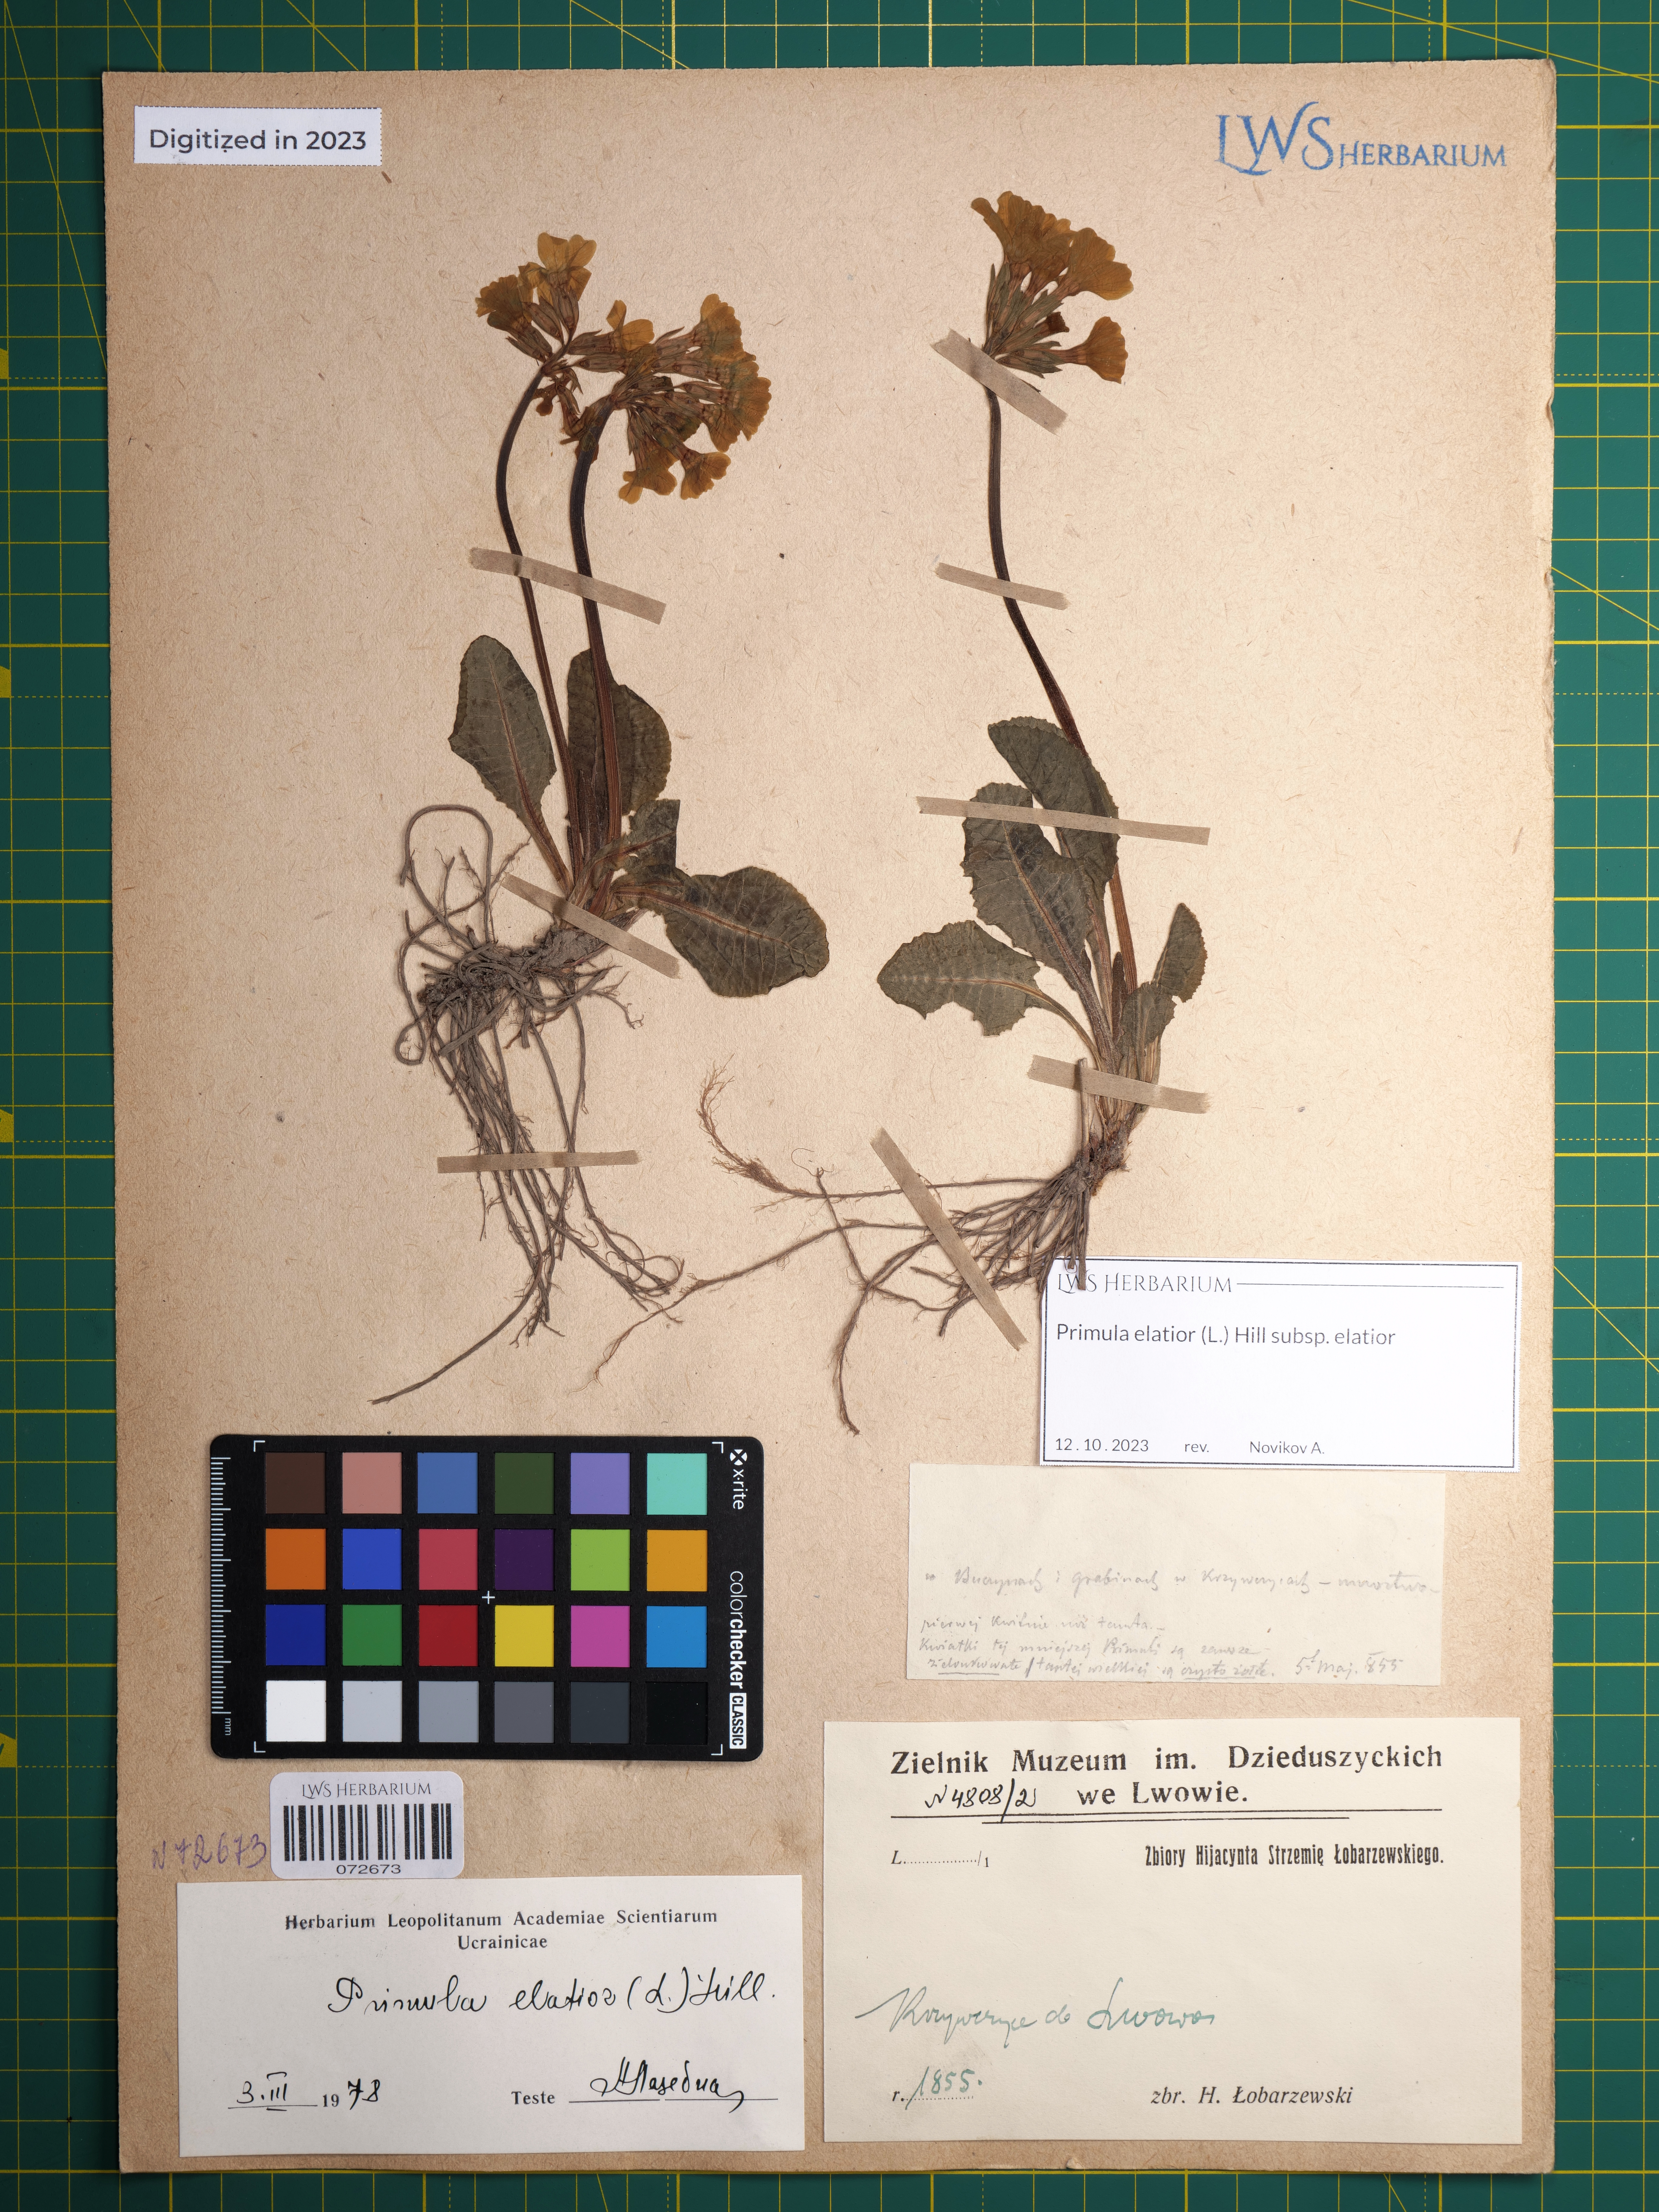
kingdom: Plantae
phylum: Tracheophyta
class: Magnoliopsida
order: Ericales
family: Primulaceae
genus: Primula
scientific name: Primula elatior
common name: Oxlip
